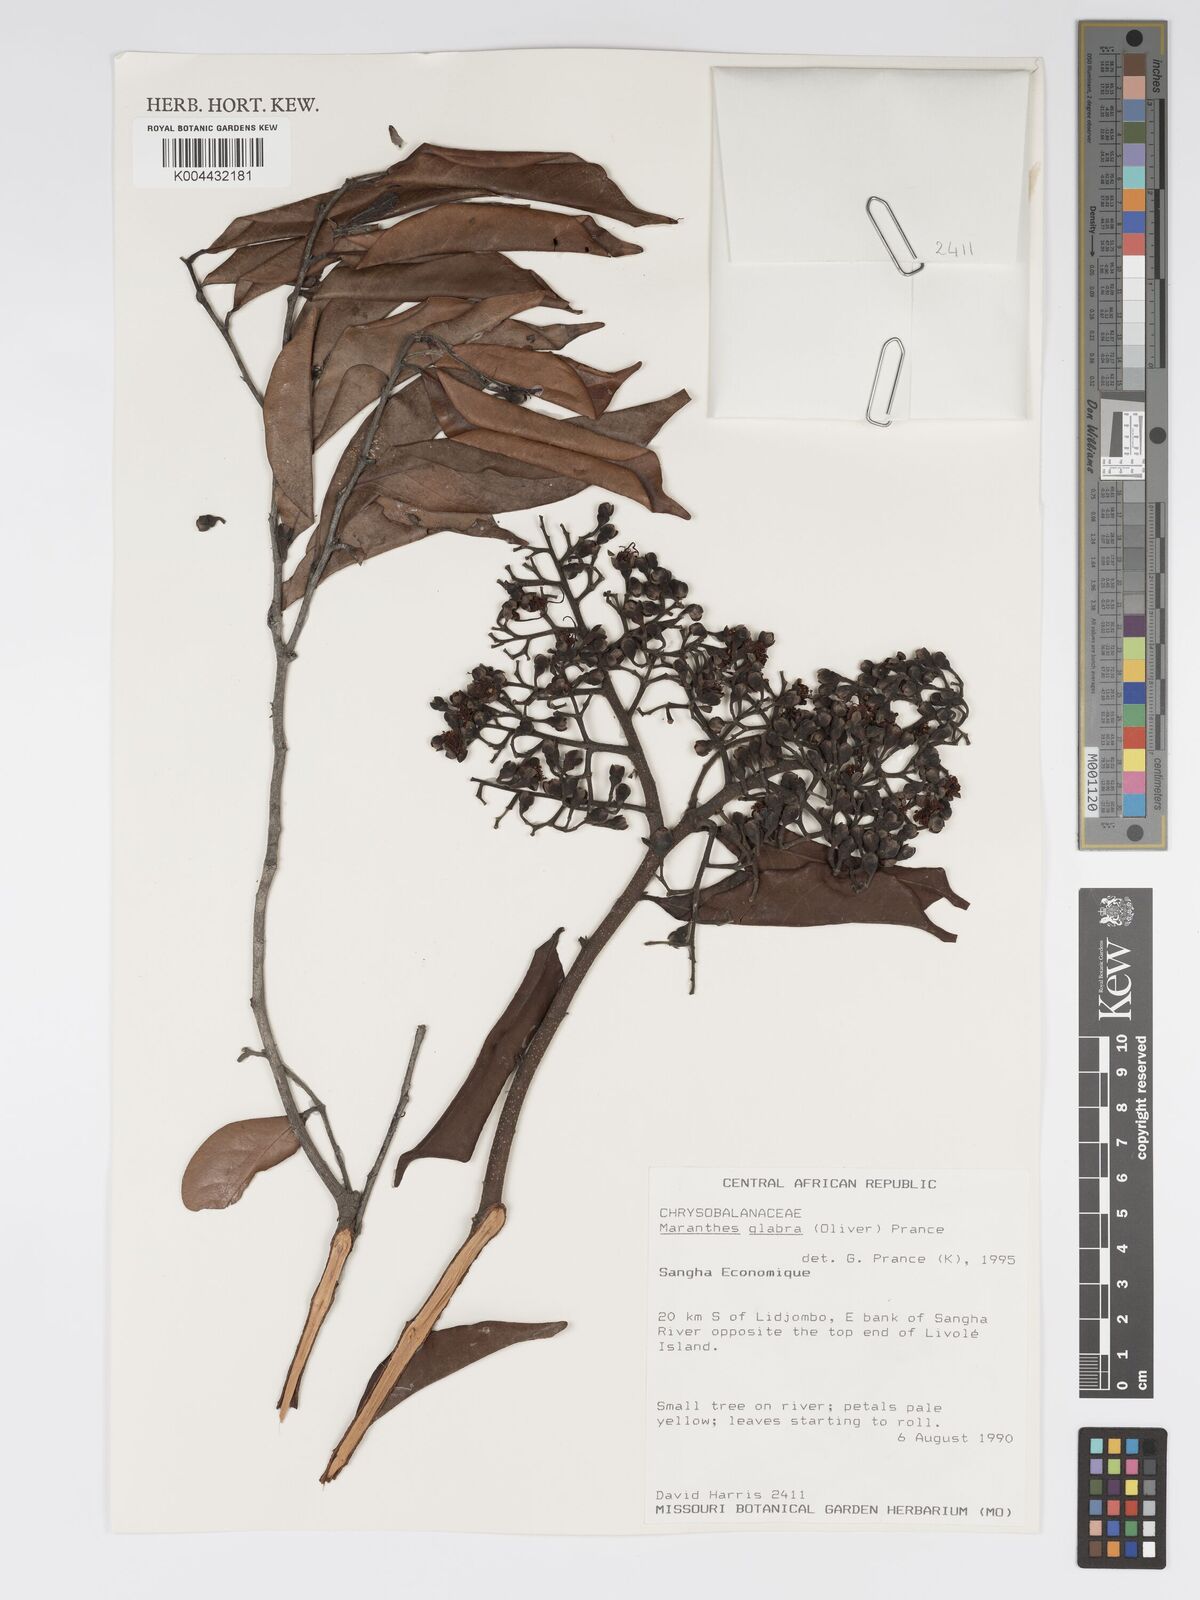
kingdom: Plantae
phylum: Tracheophyta
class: Magnoliopsida
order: Malpighiales
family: Chrysobalanaceae
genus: Maranthes
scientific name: Maranthes glabra
